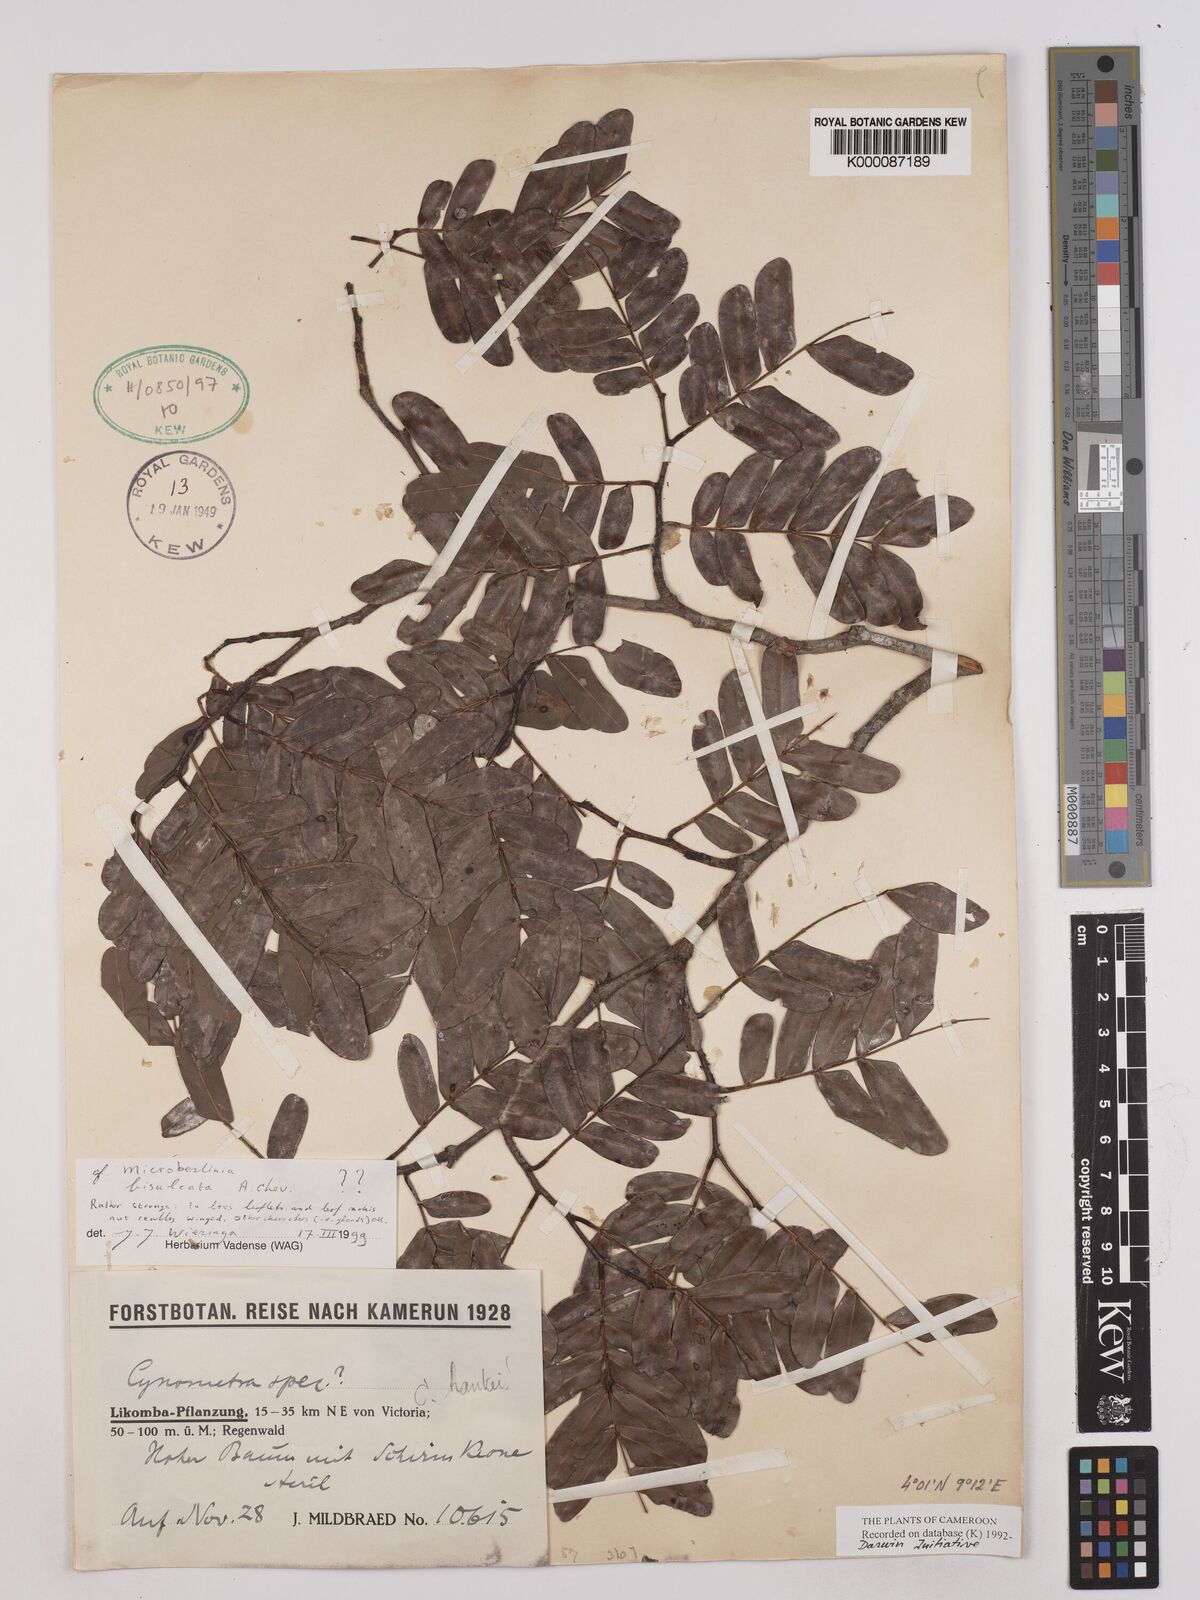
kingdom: Plantae
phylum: Tracheophyta
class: Magnoliopsida
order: Fabales
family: Fabaceae
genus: Microberlinia
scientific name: Microberlinia bisulcata
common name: Zingana
